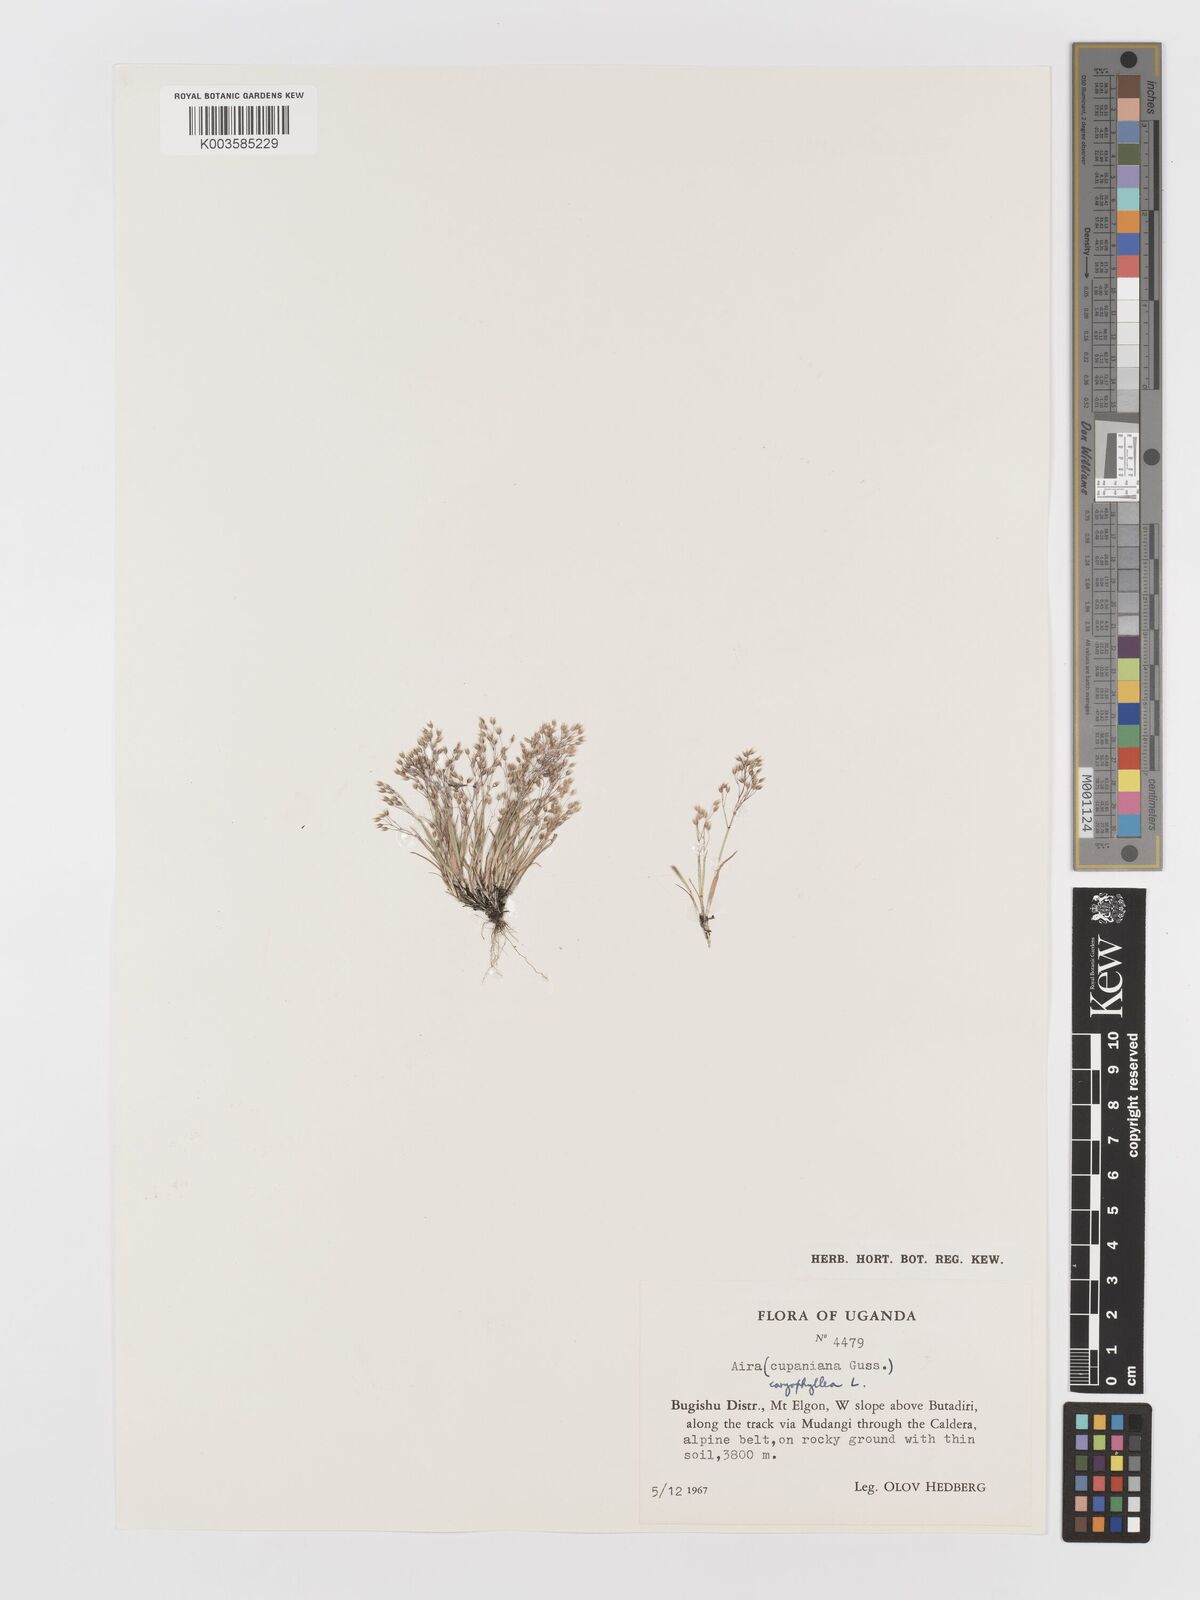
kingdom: Plantae
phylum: Tracheophyta
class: Liliopsida
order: Poales
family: Poaceae
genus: Aira
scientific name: Aira caryophyllea
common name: Silver hairgrass
